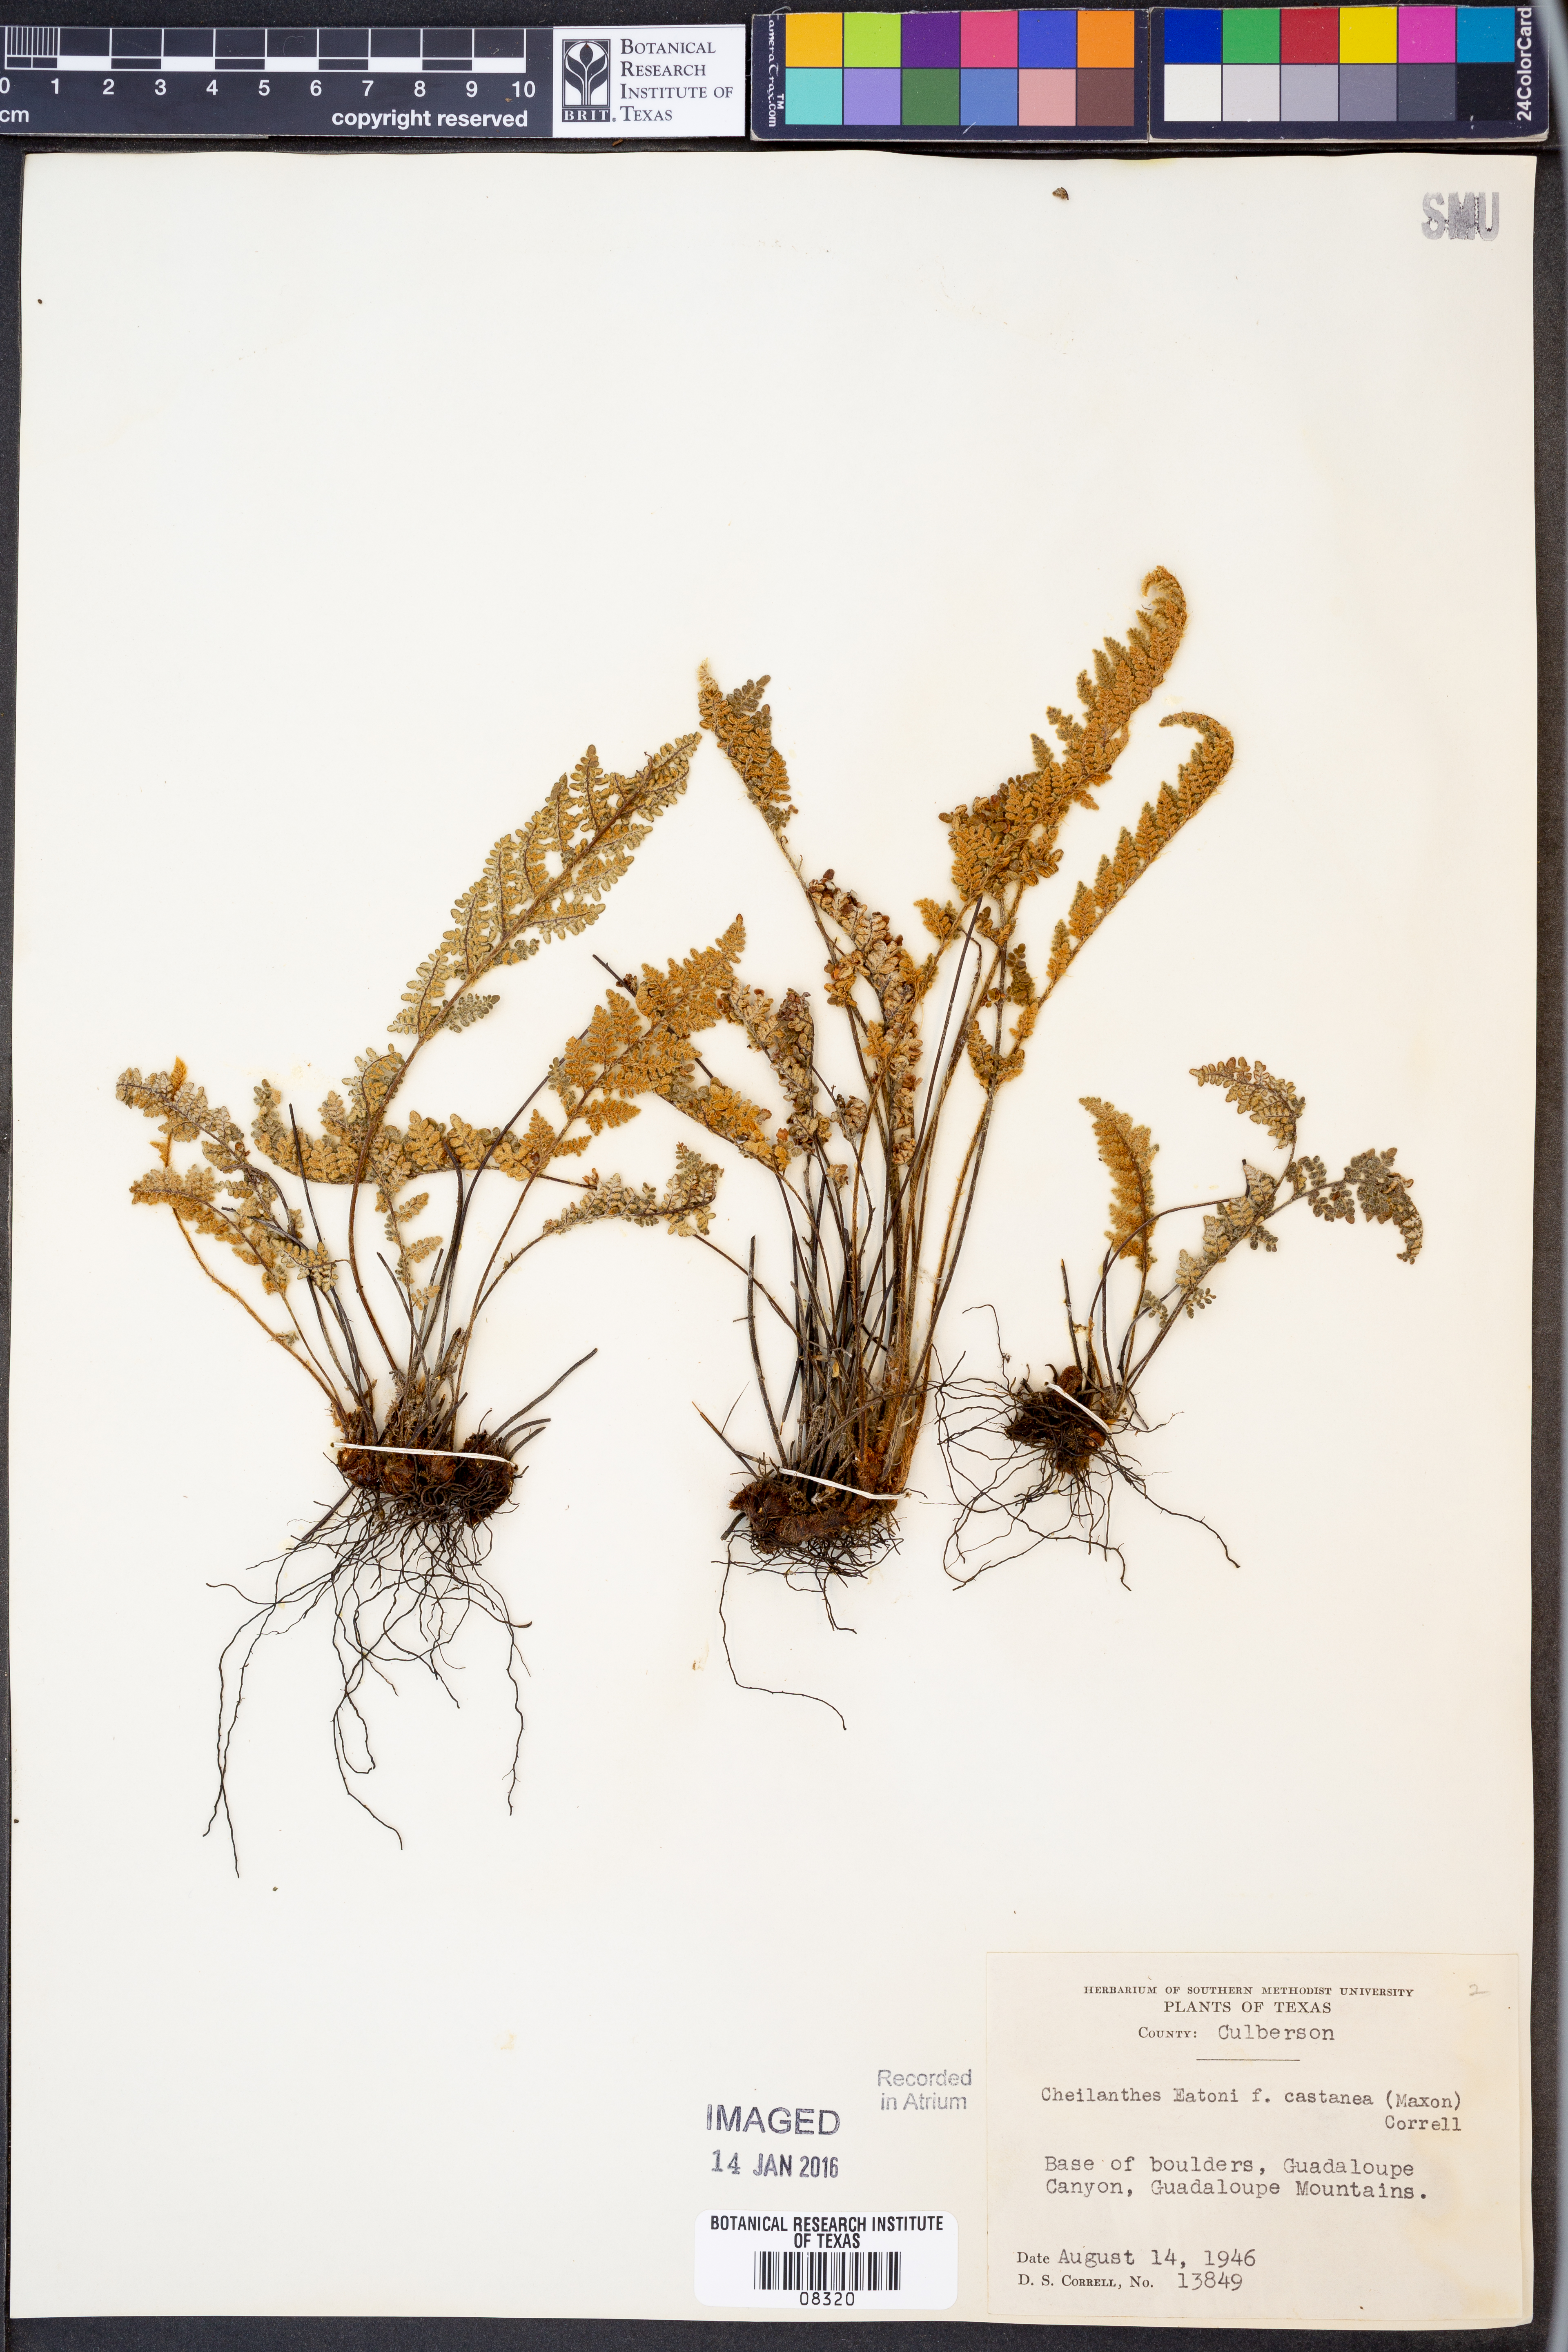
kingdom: Plantae
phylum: Tracheophyta
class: Polypodiopsida
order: Polypodiales
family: Pteridaceae
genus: Myriopteris
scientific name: Myriopteris rufa
